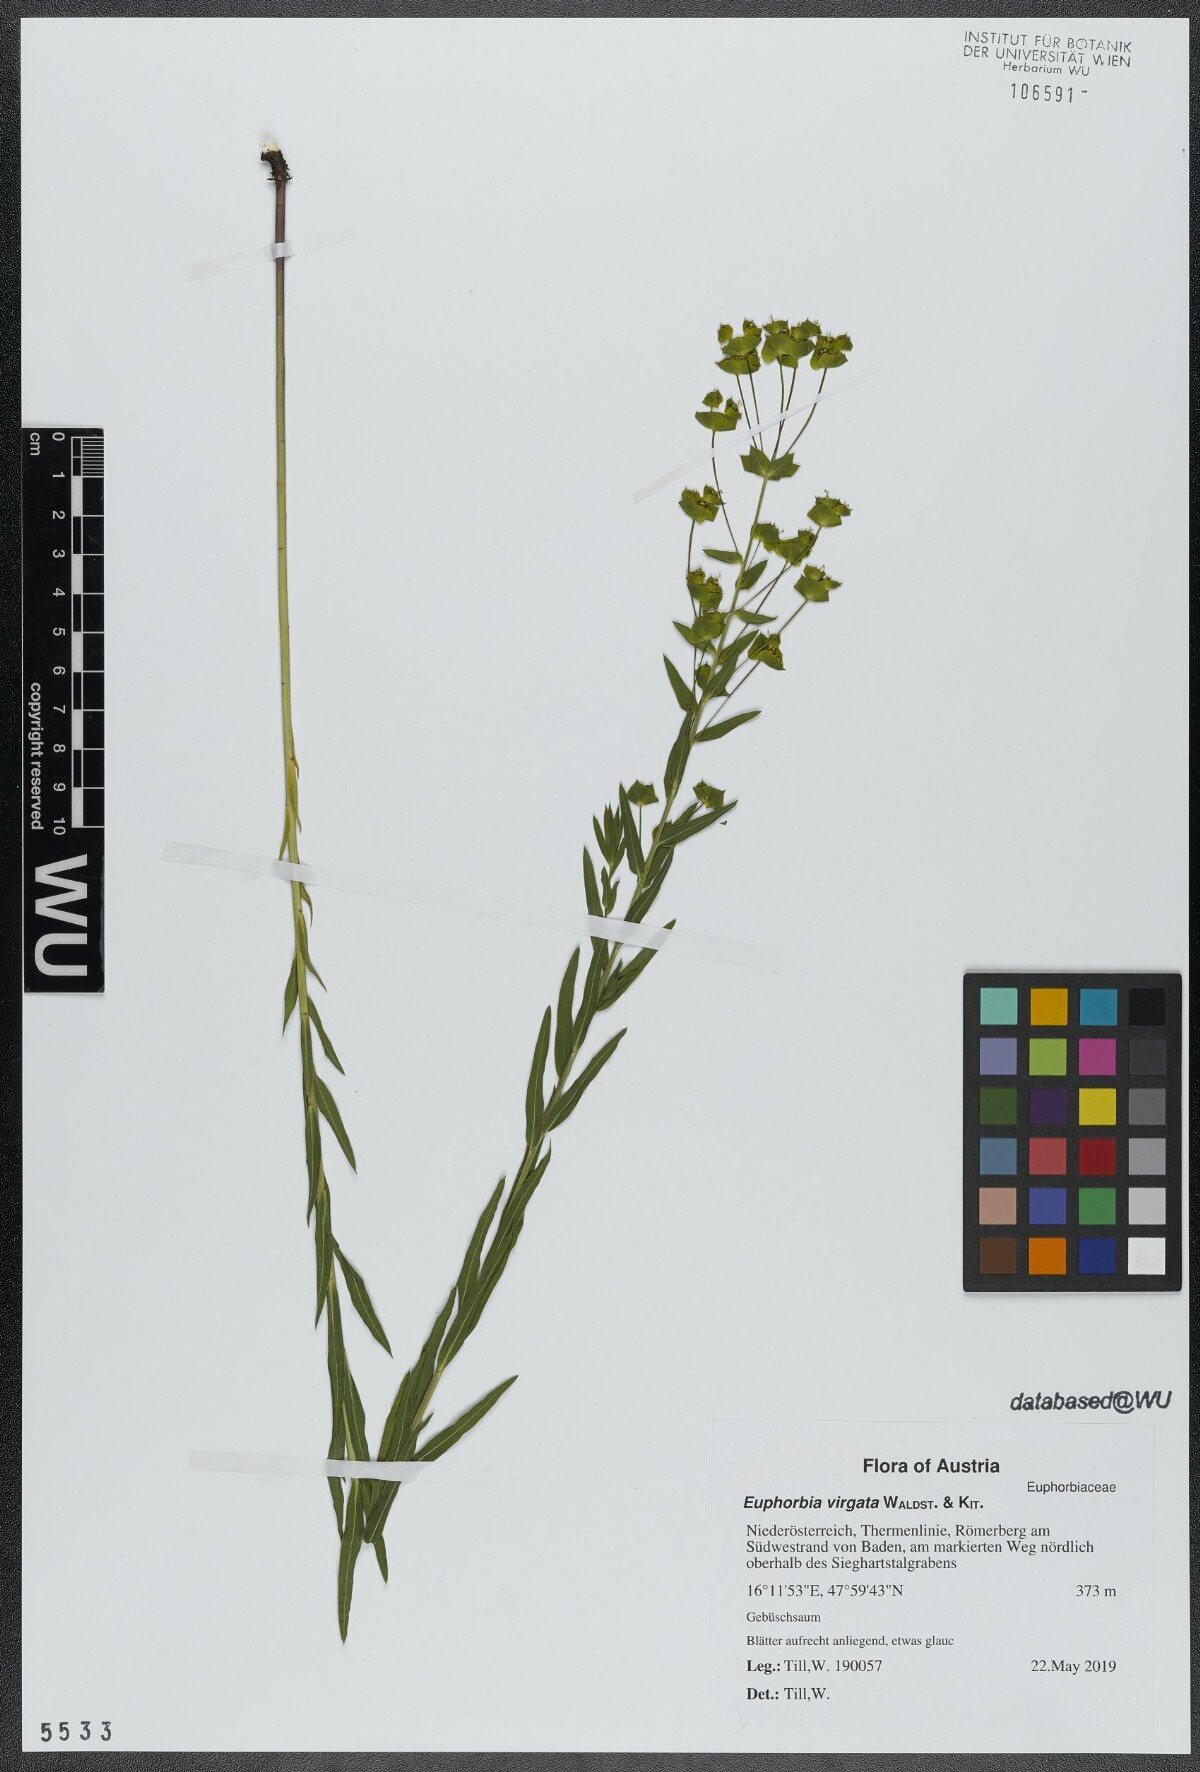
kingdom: Plantae
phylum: Tracheophyta
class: Magnoliopsida
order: Malpighiales
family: Euphorbiaceae
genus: Euphorbia
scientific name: Euphorbia virgata
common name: Leafy spurge
